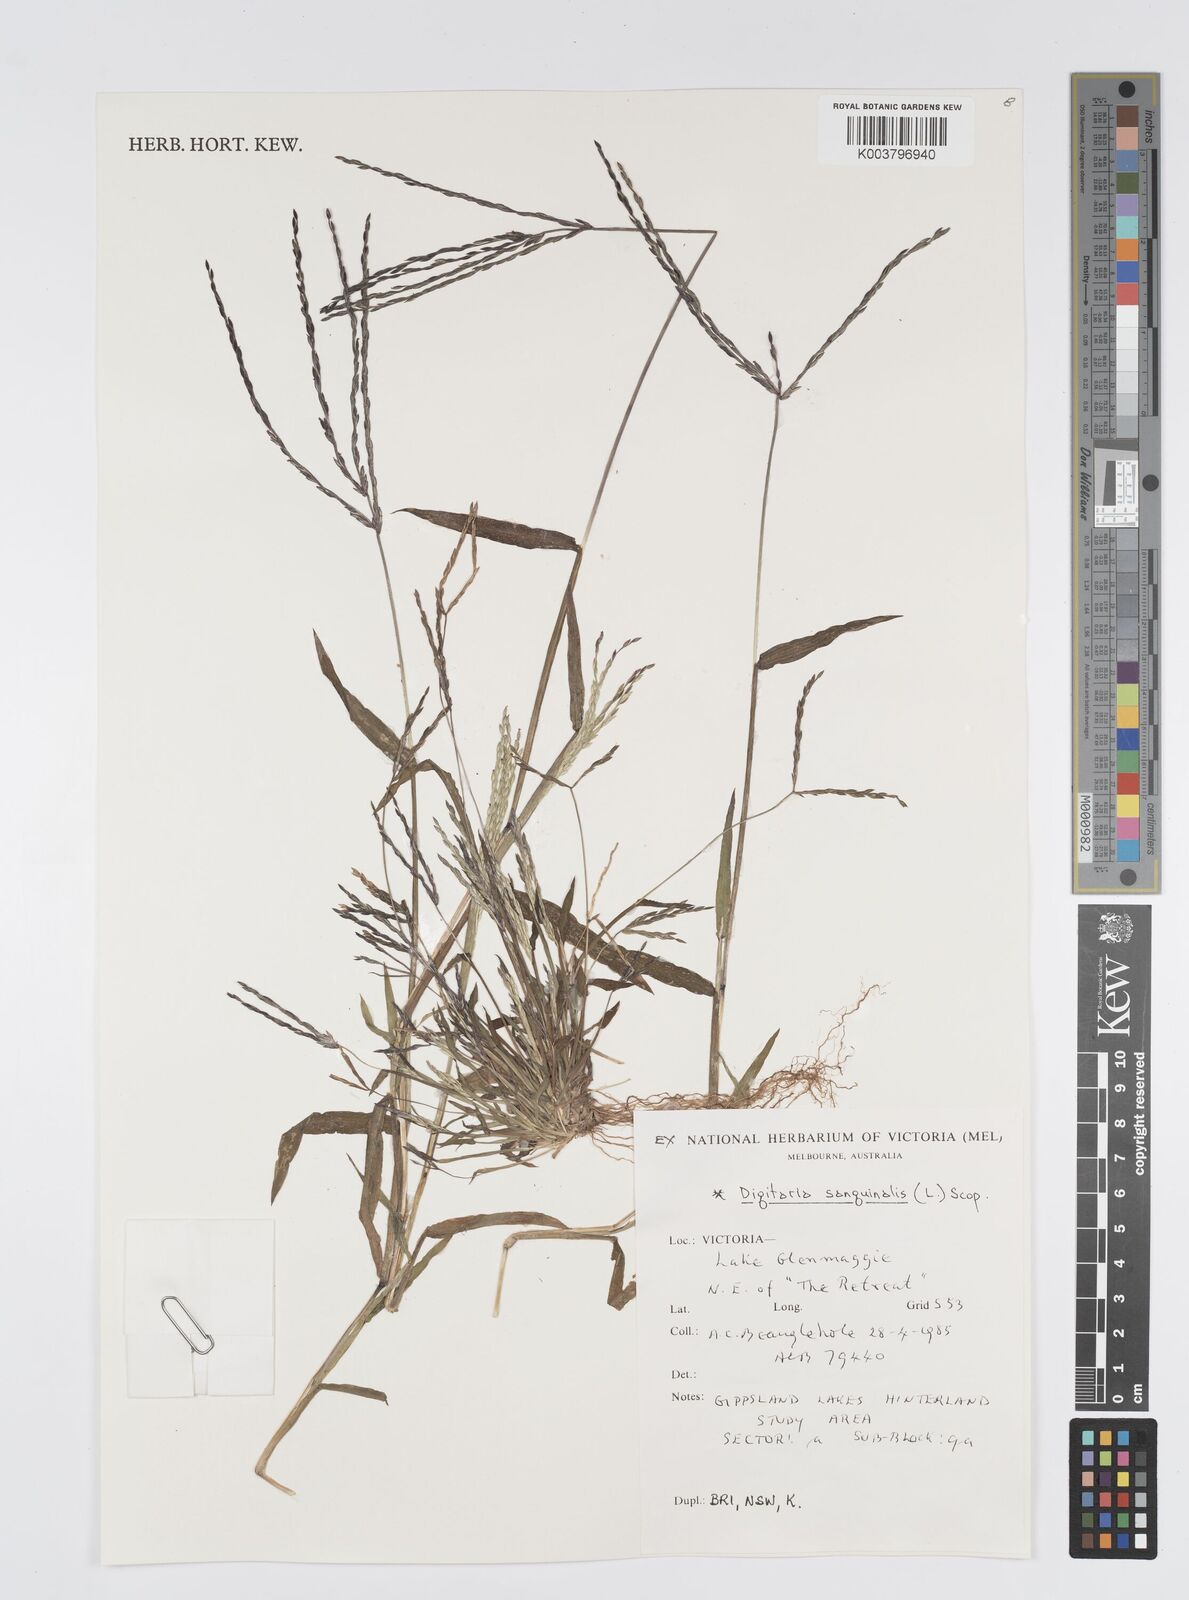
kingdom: Plantae
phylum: Tracheophyta
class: Liliopsida
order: Poales
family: Poaceae
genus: Digitaria
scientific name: Digitaria sanguinalis
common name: Hairy crabgrass
